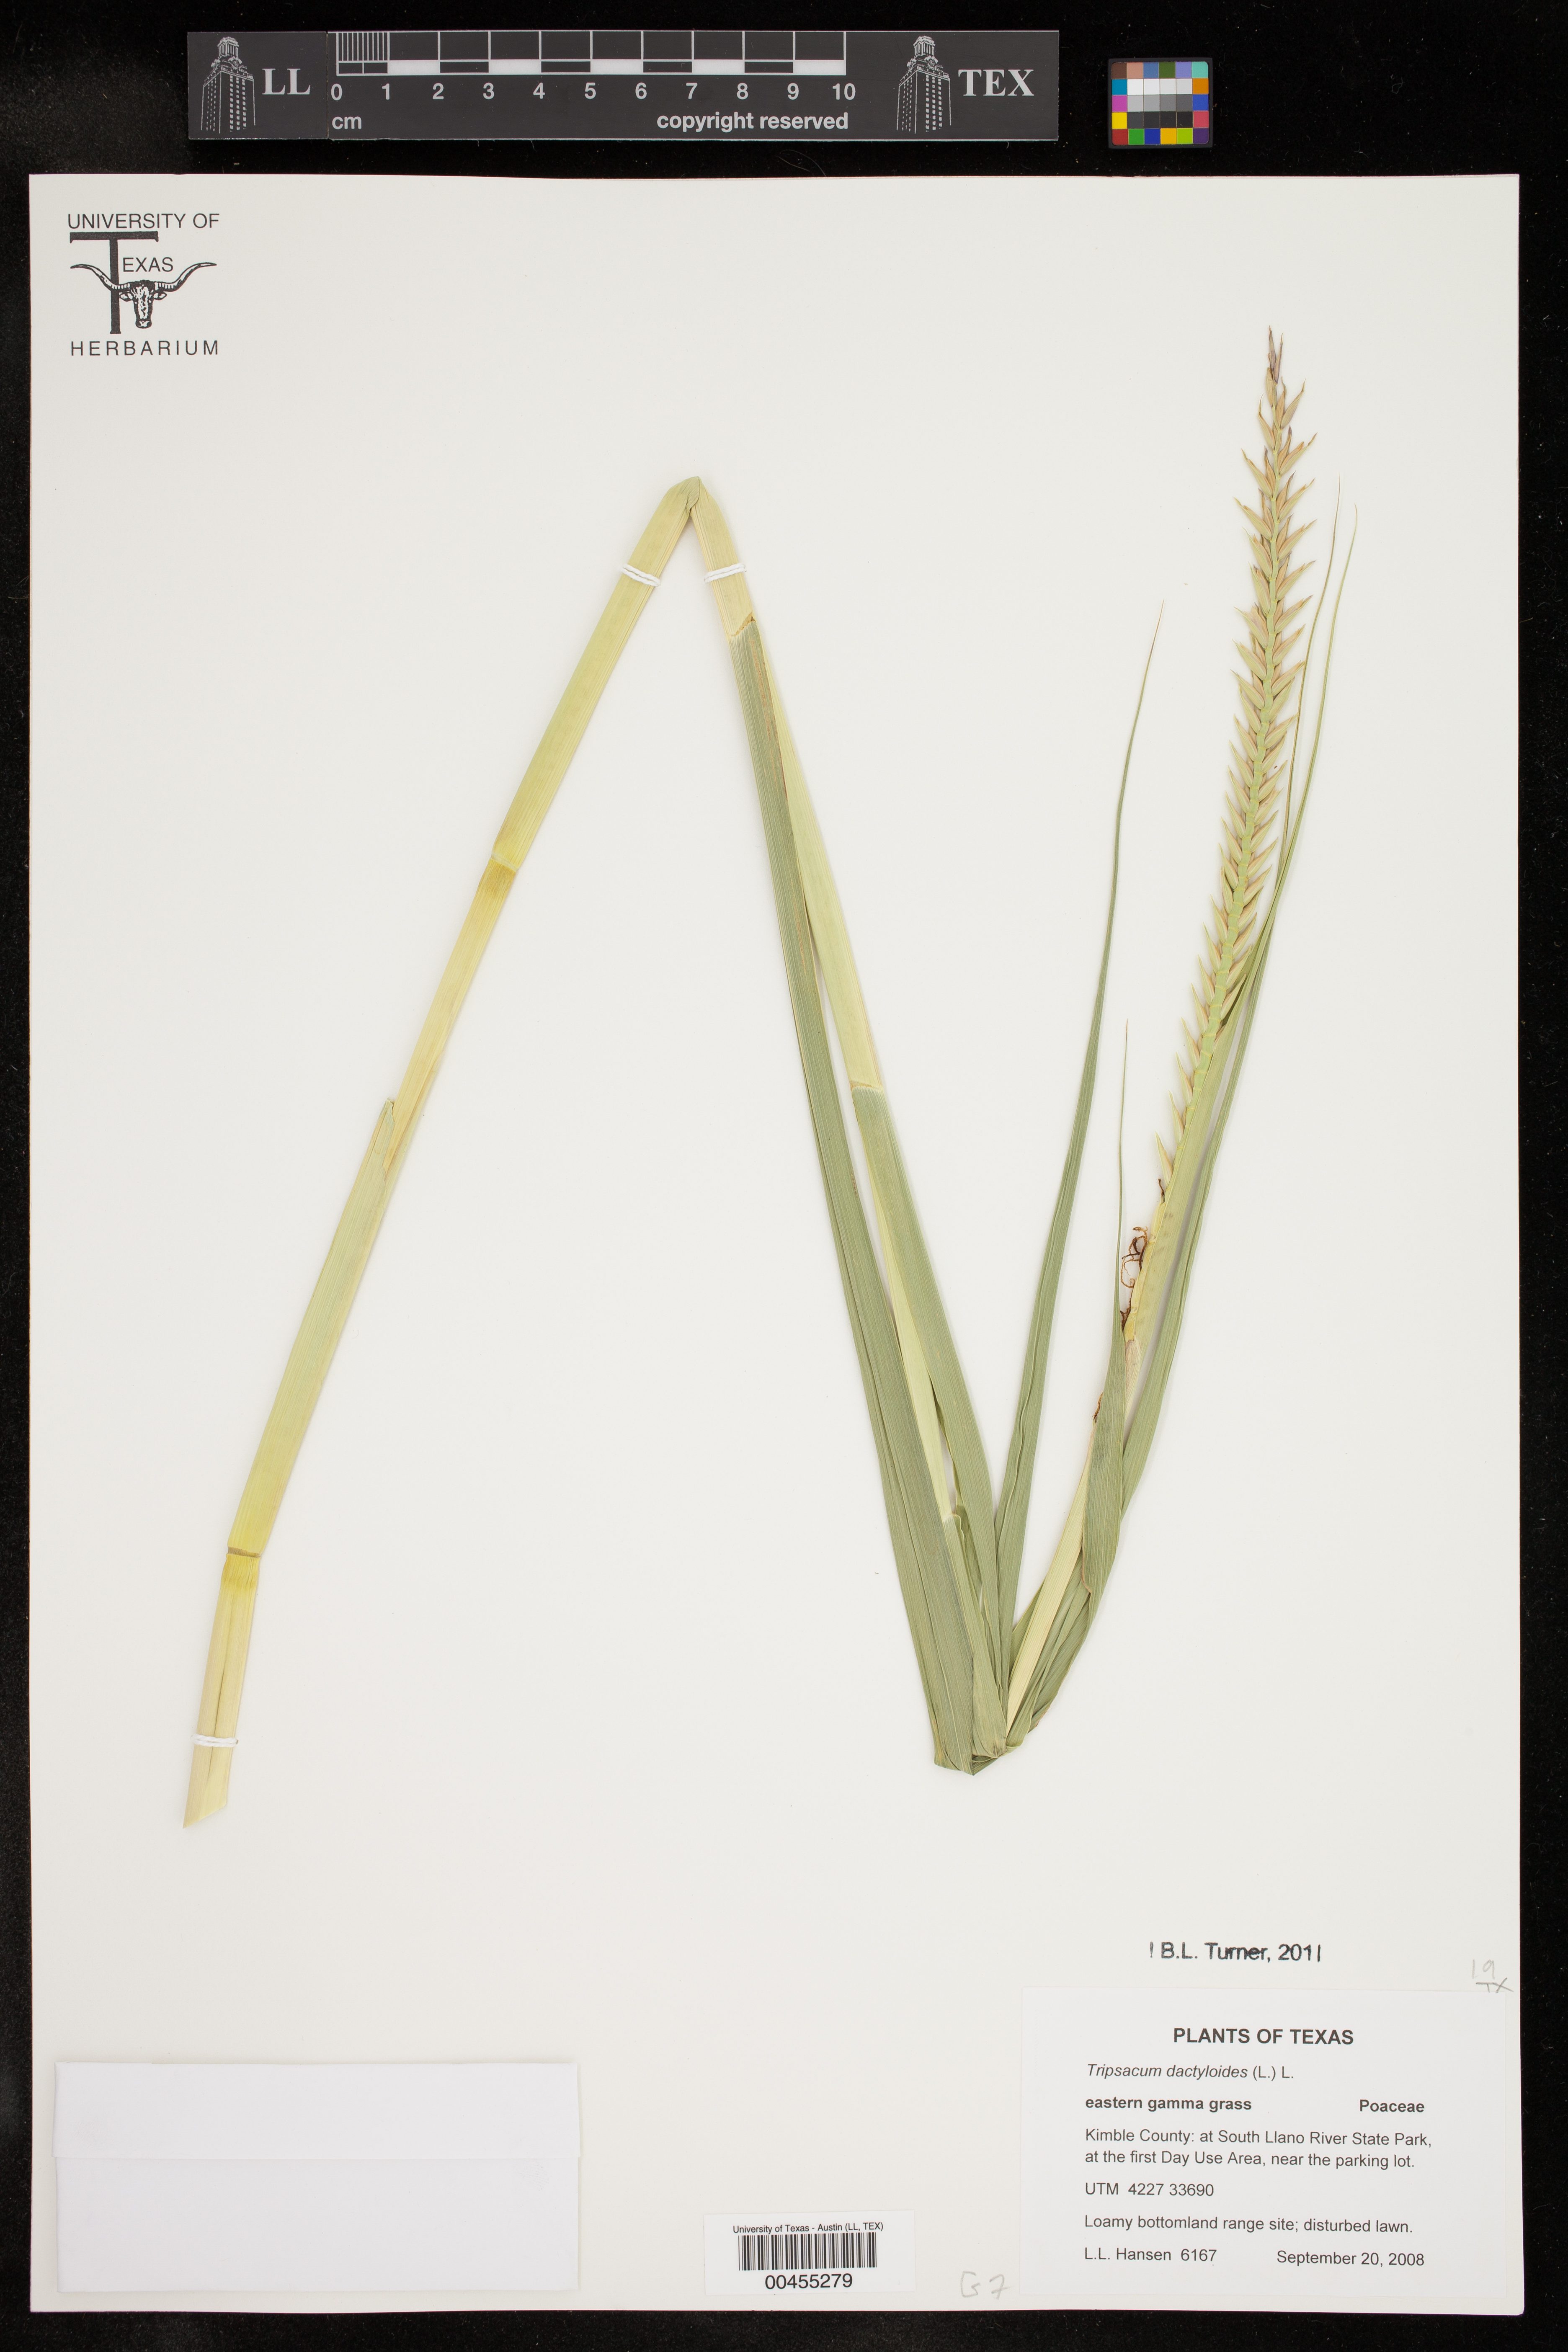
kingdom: Plantae
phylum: Tracheophyta
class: Liliopsida
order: Poales
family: Poaceae
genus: Tripsacum
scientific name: Tripsacum dactyloides
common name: Buffalo-grass
